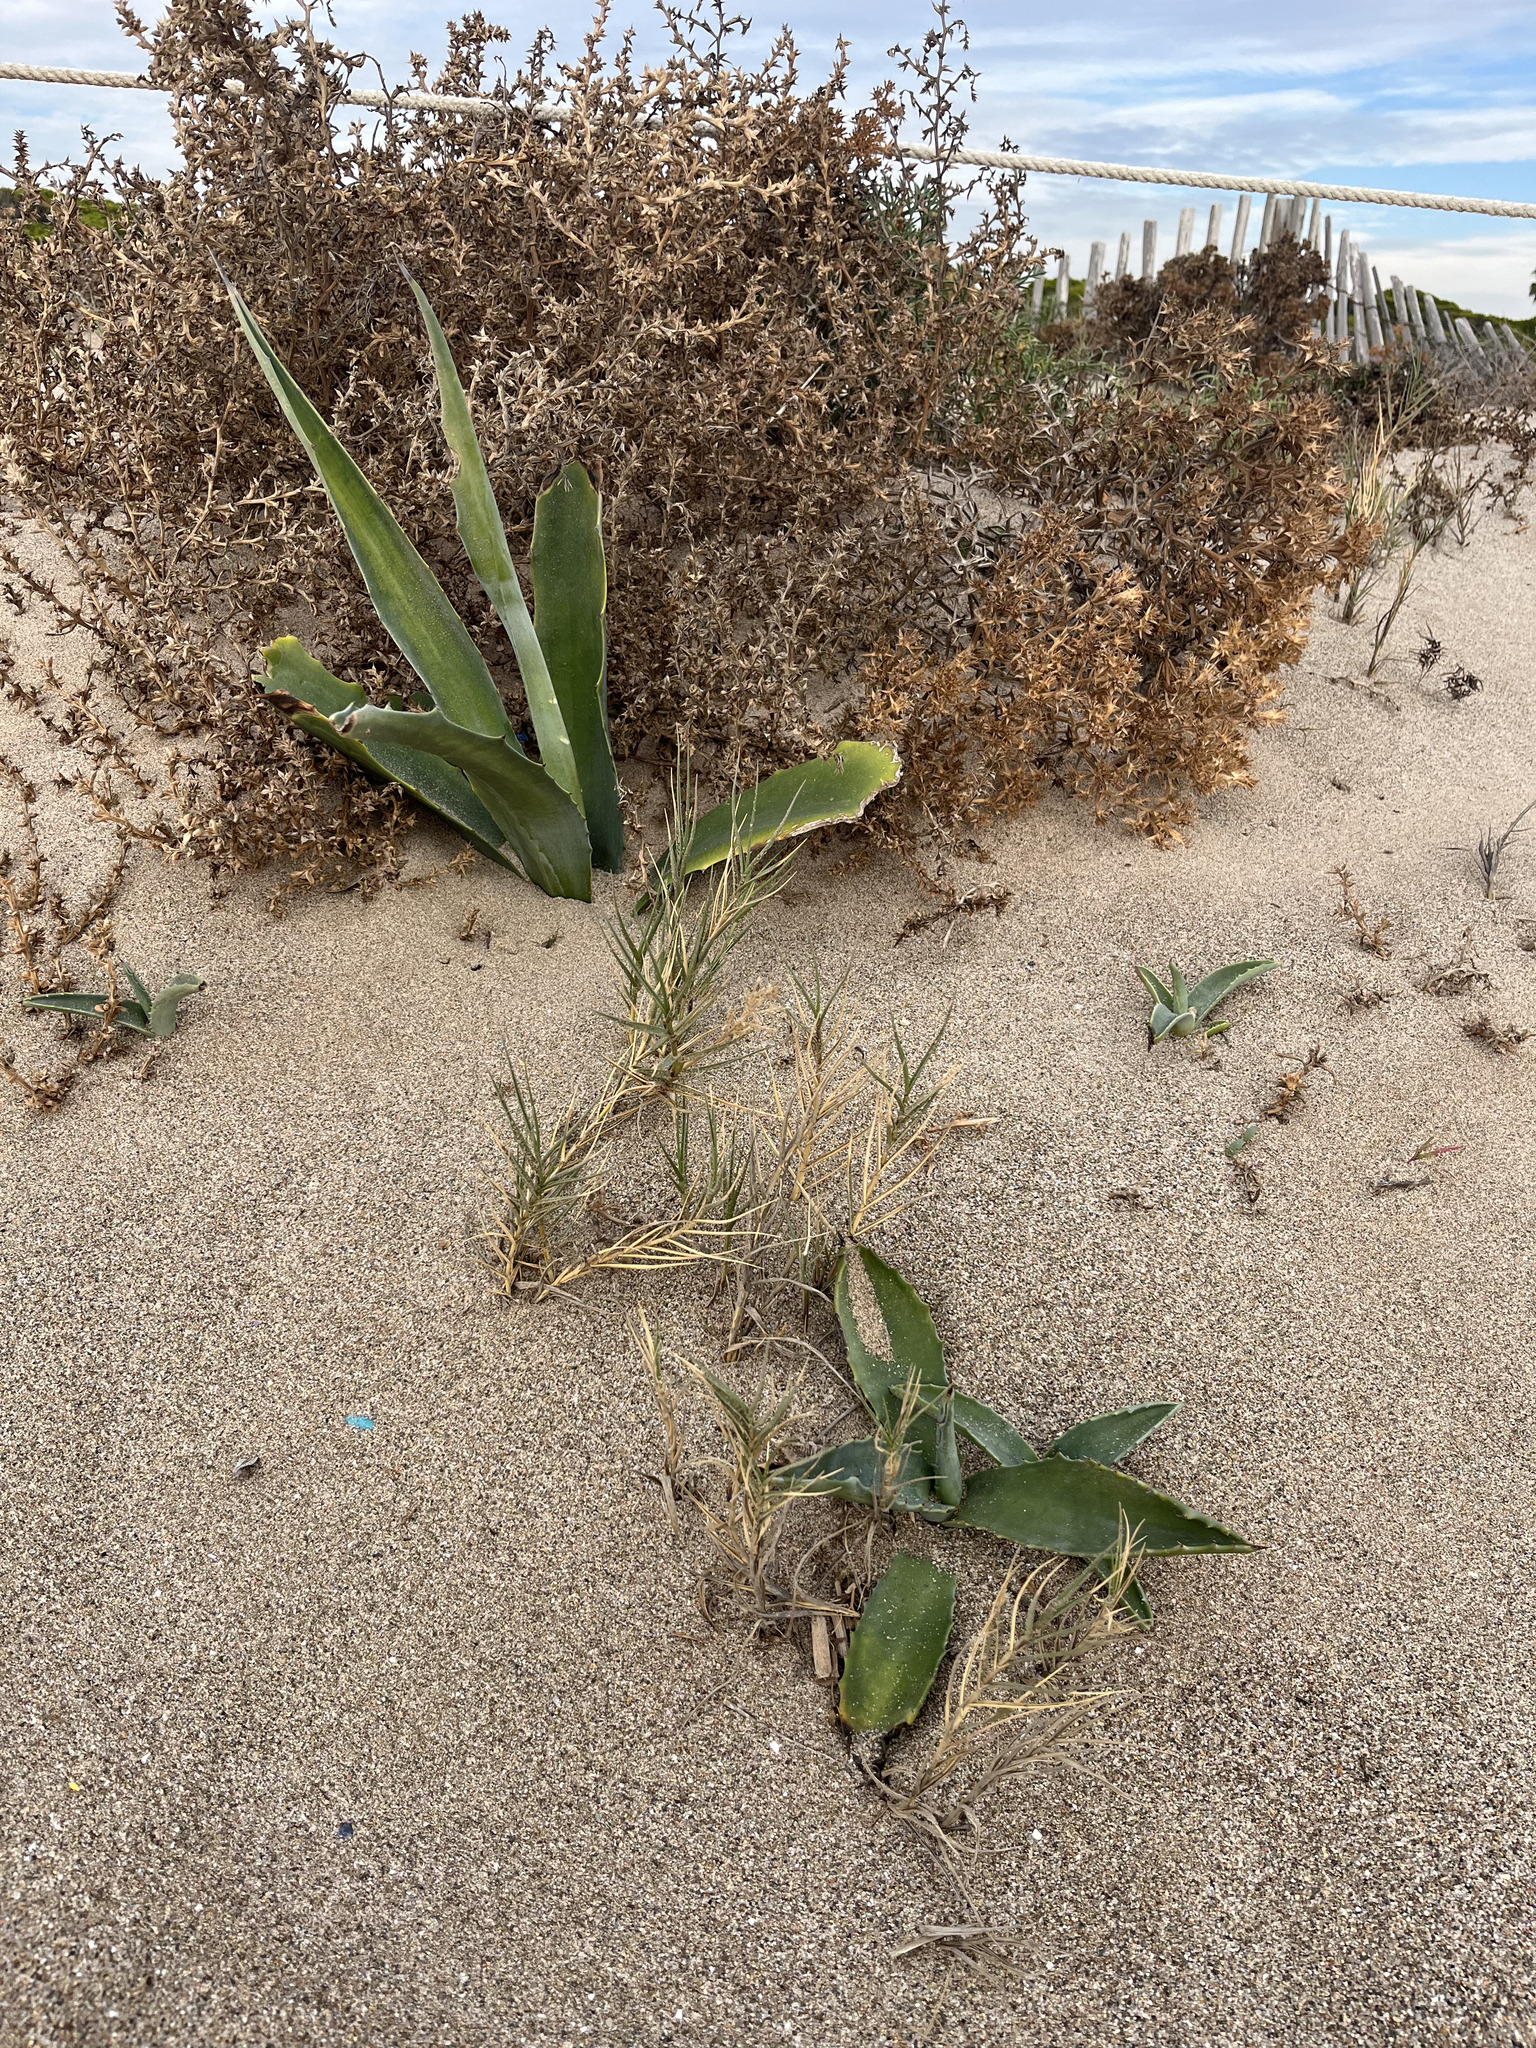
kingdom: Plantae
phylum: Tracheophyta
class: Liliopsida
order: Asparagales
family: Asparagaceae
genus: Agave
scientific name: Agave americana
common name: Centuryplant
